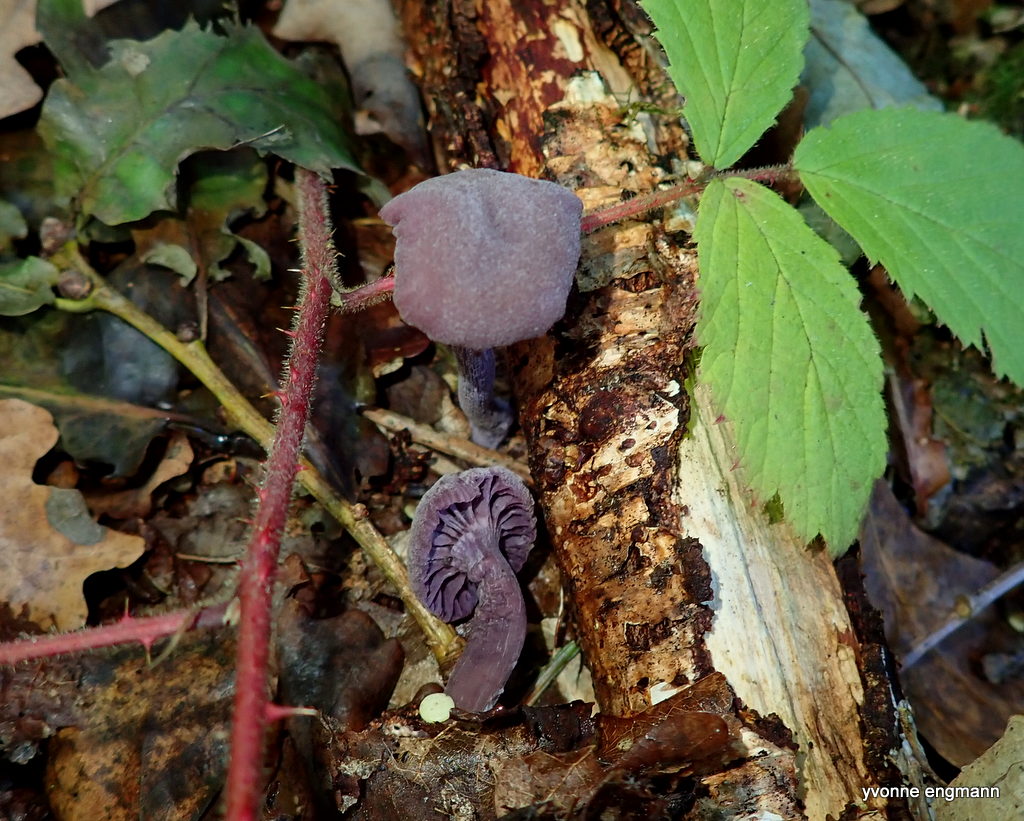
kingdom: Fungi
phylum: Basidiomycota
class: Agaricomycetes
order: Agaricales
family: Hydnangiaceae
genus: Laccaria
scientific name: Laccaria amethystina
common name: violet ametysthat
